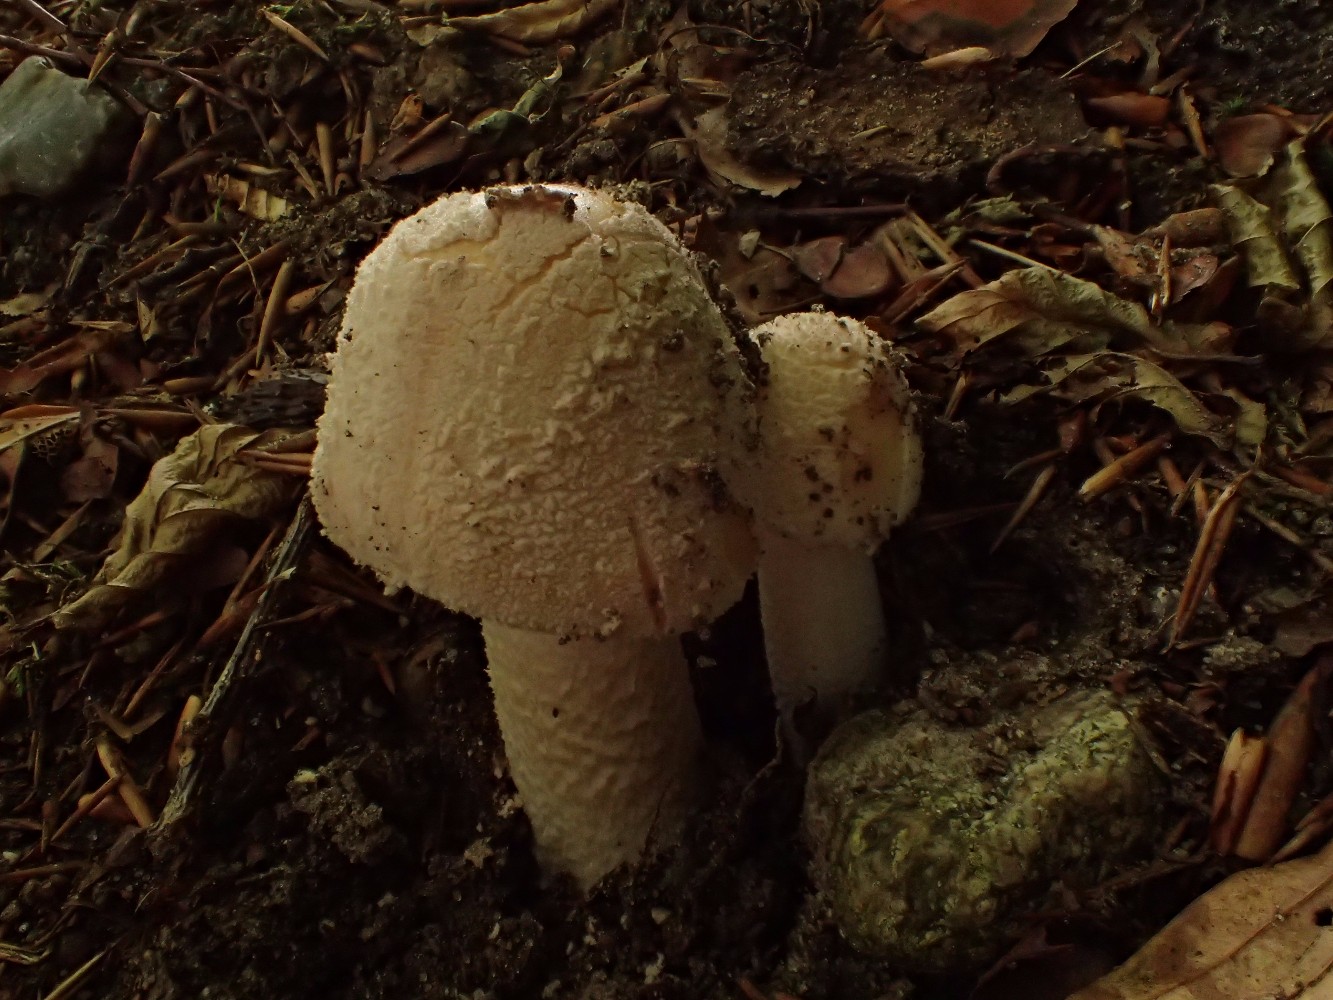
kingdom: Fungi
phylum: Basidiomycota
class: Agaricomycetes
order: Agaricales
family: Amanitaceae
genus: Amanita
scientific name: Amanita rubescens
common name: rødmende fluesvamp
